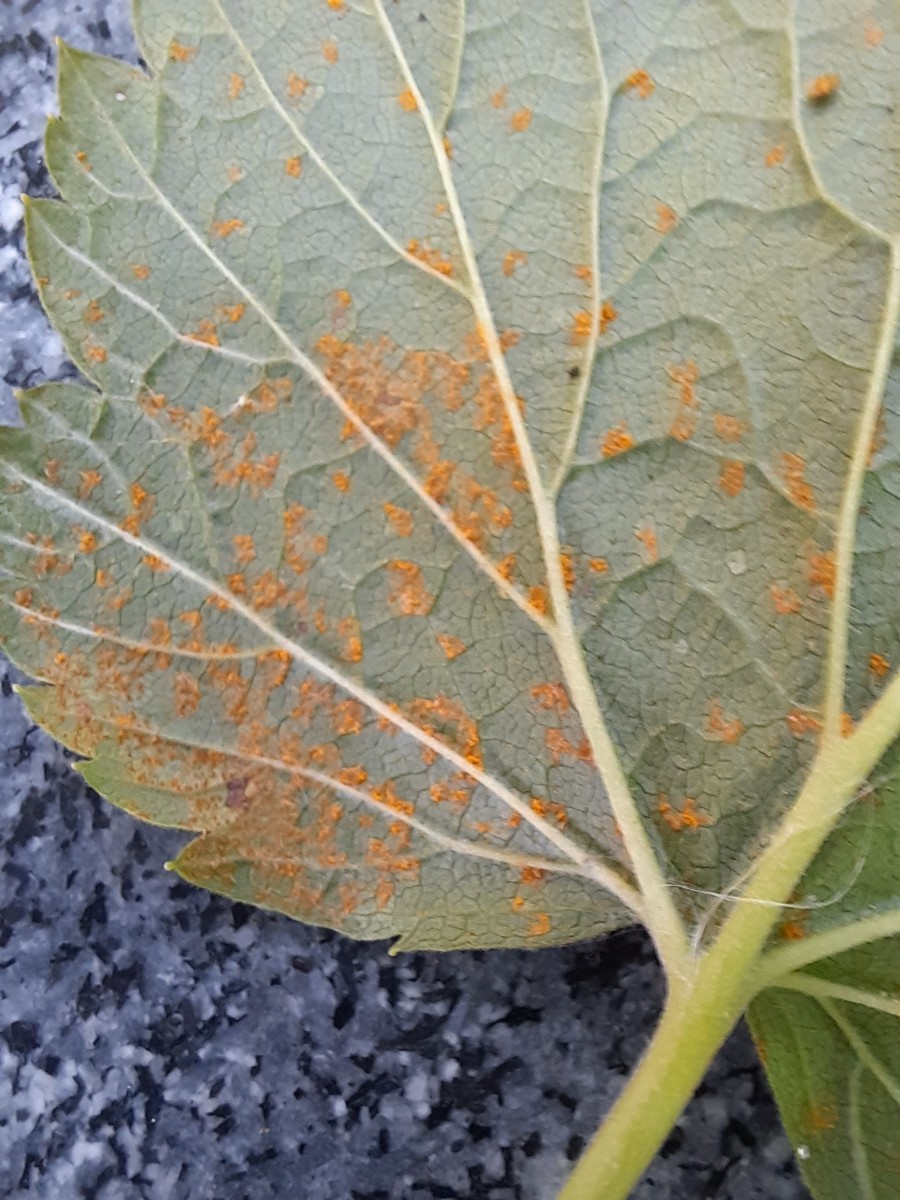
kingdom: Fungi
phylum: Basidiomycota
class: Pucciniomycetes
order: Pucciniales
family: Cronartiaceae
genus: Cronartium
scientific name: Cronartium ribicola
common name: solbær-filtrust
